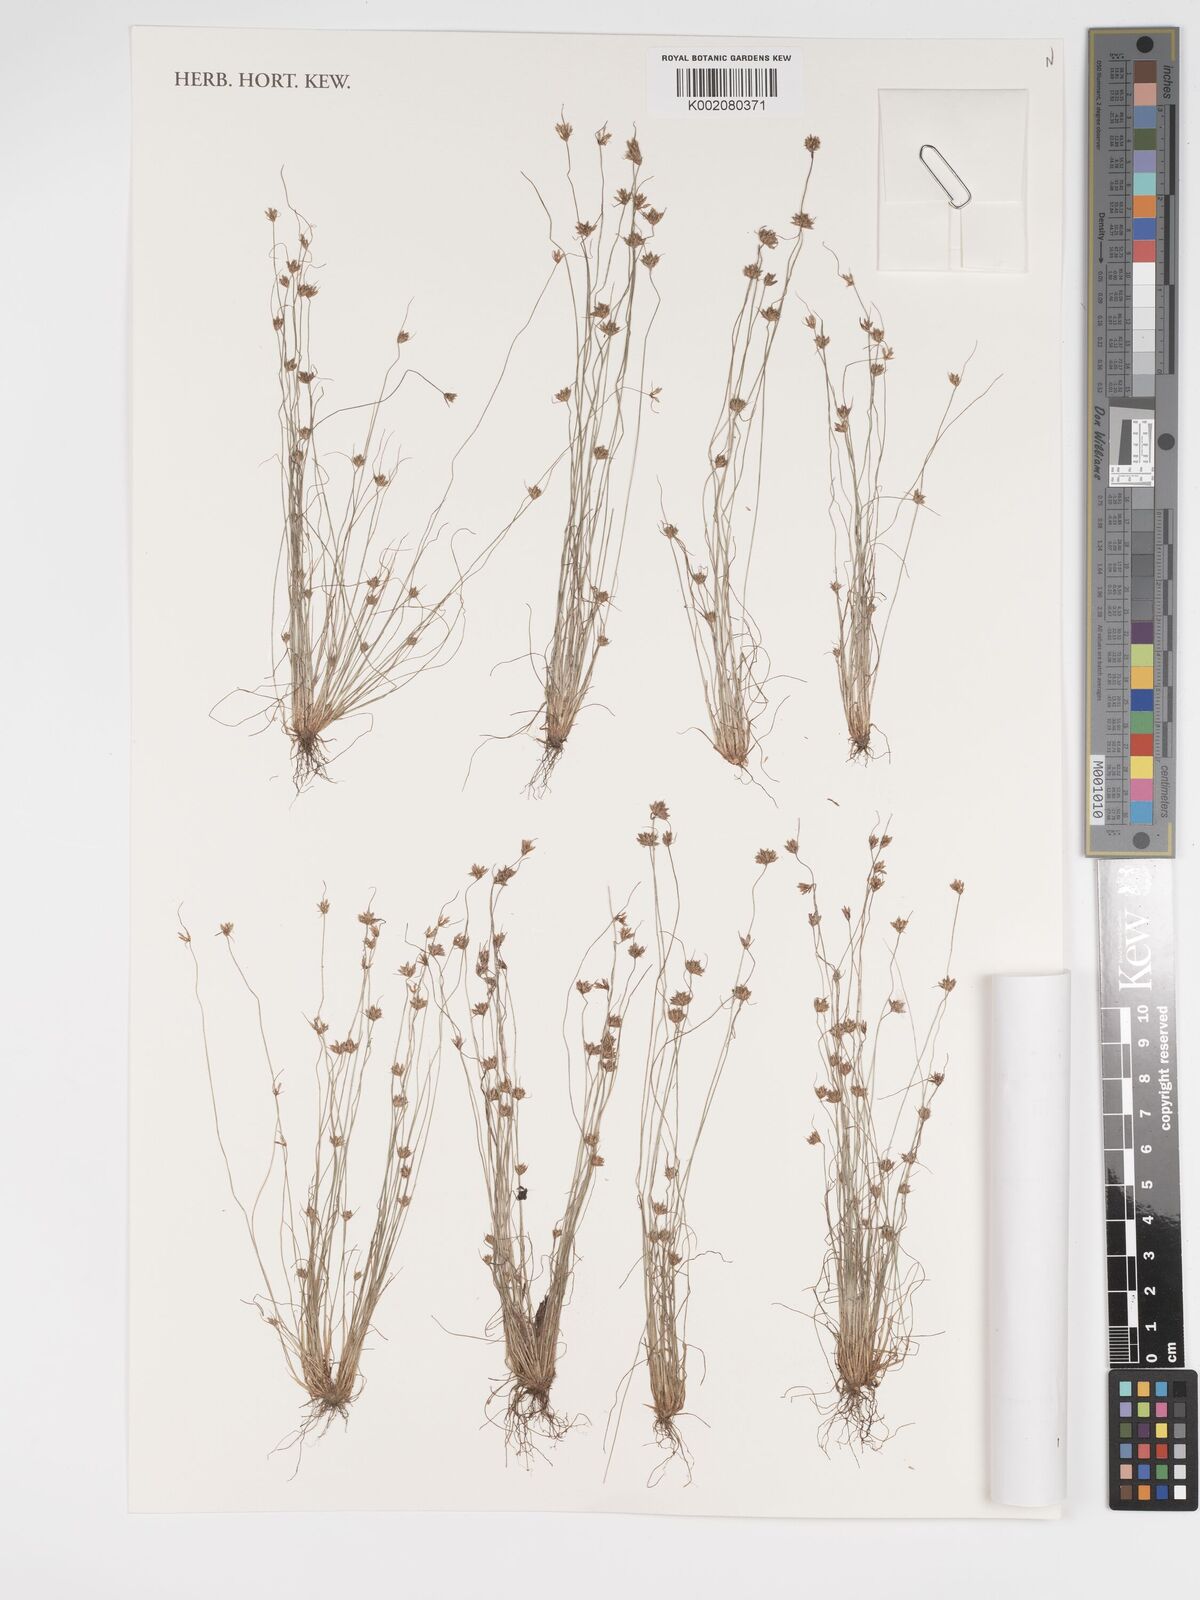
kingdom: Plantae
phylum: Tracheophyta
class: Liliopsida
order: Poales
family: Cyperaceae
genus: Bulbostylis
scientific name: Bulbostylis barbata
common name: Watergrass
